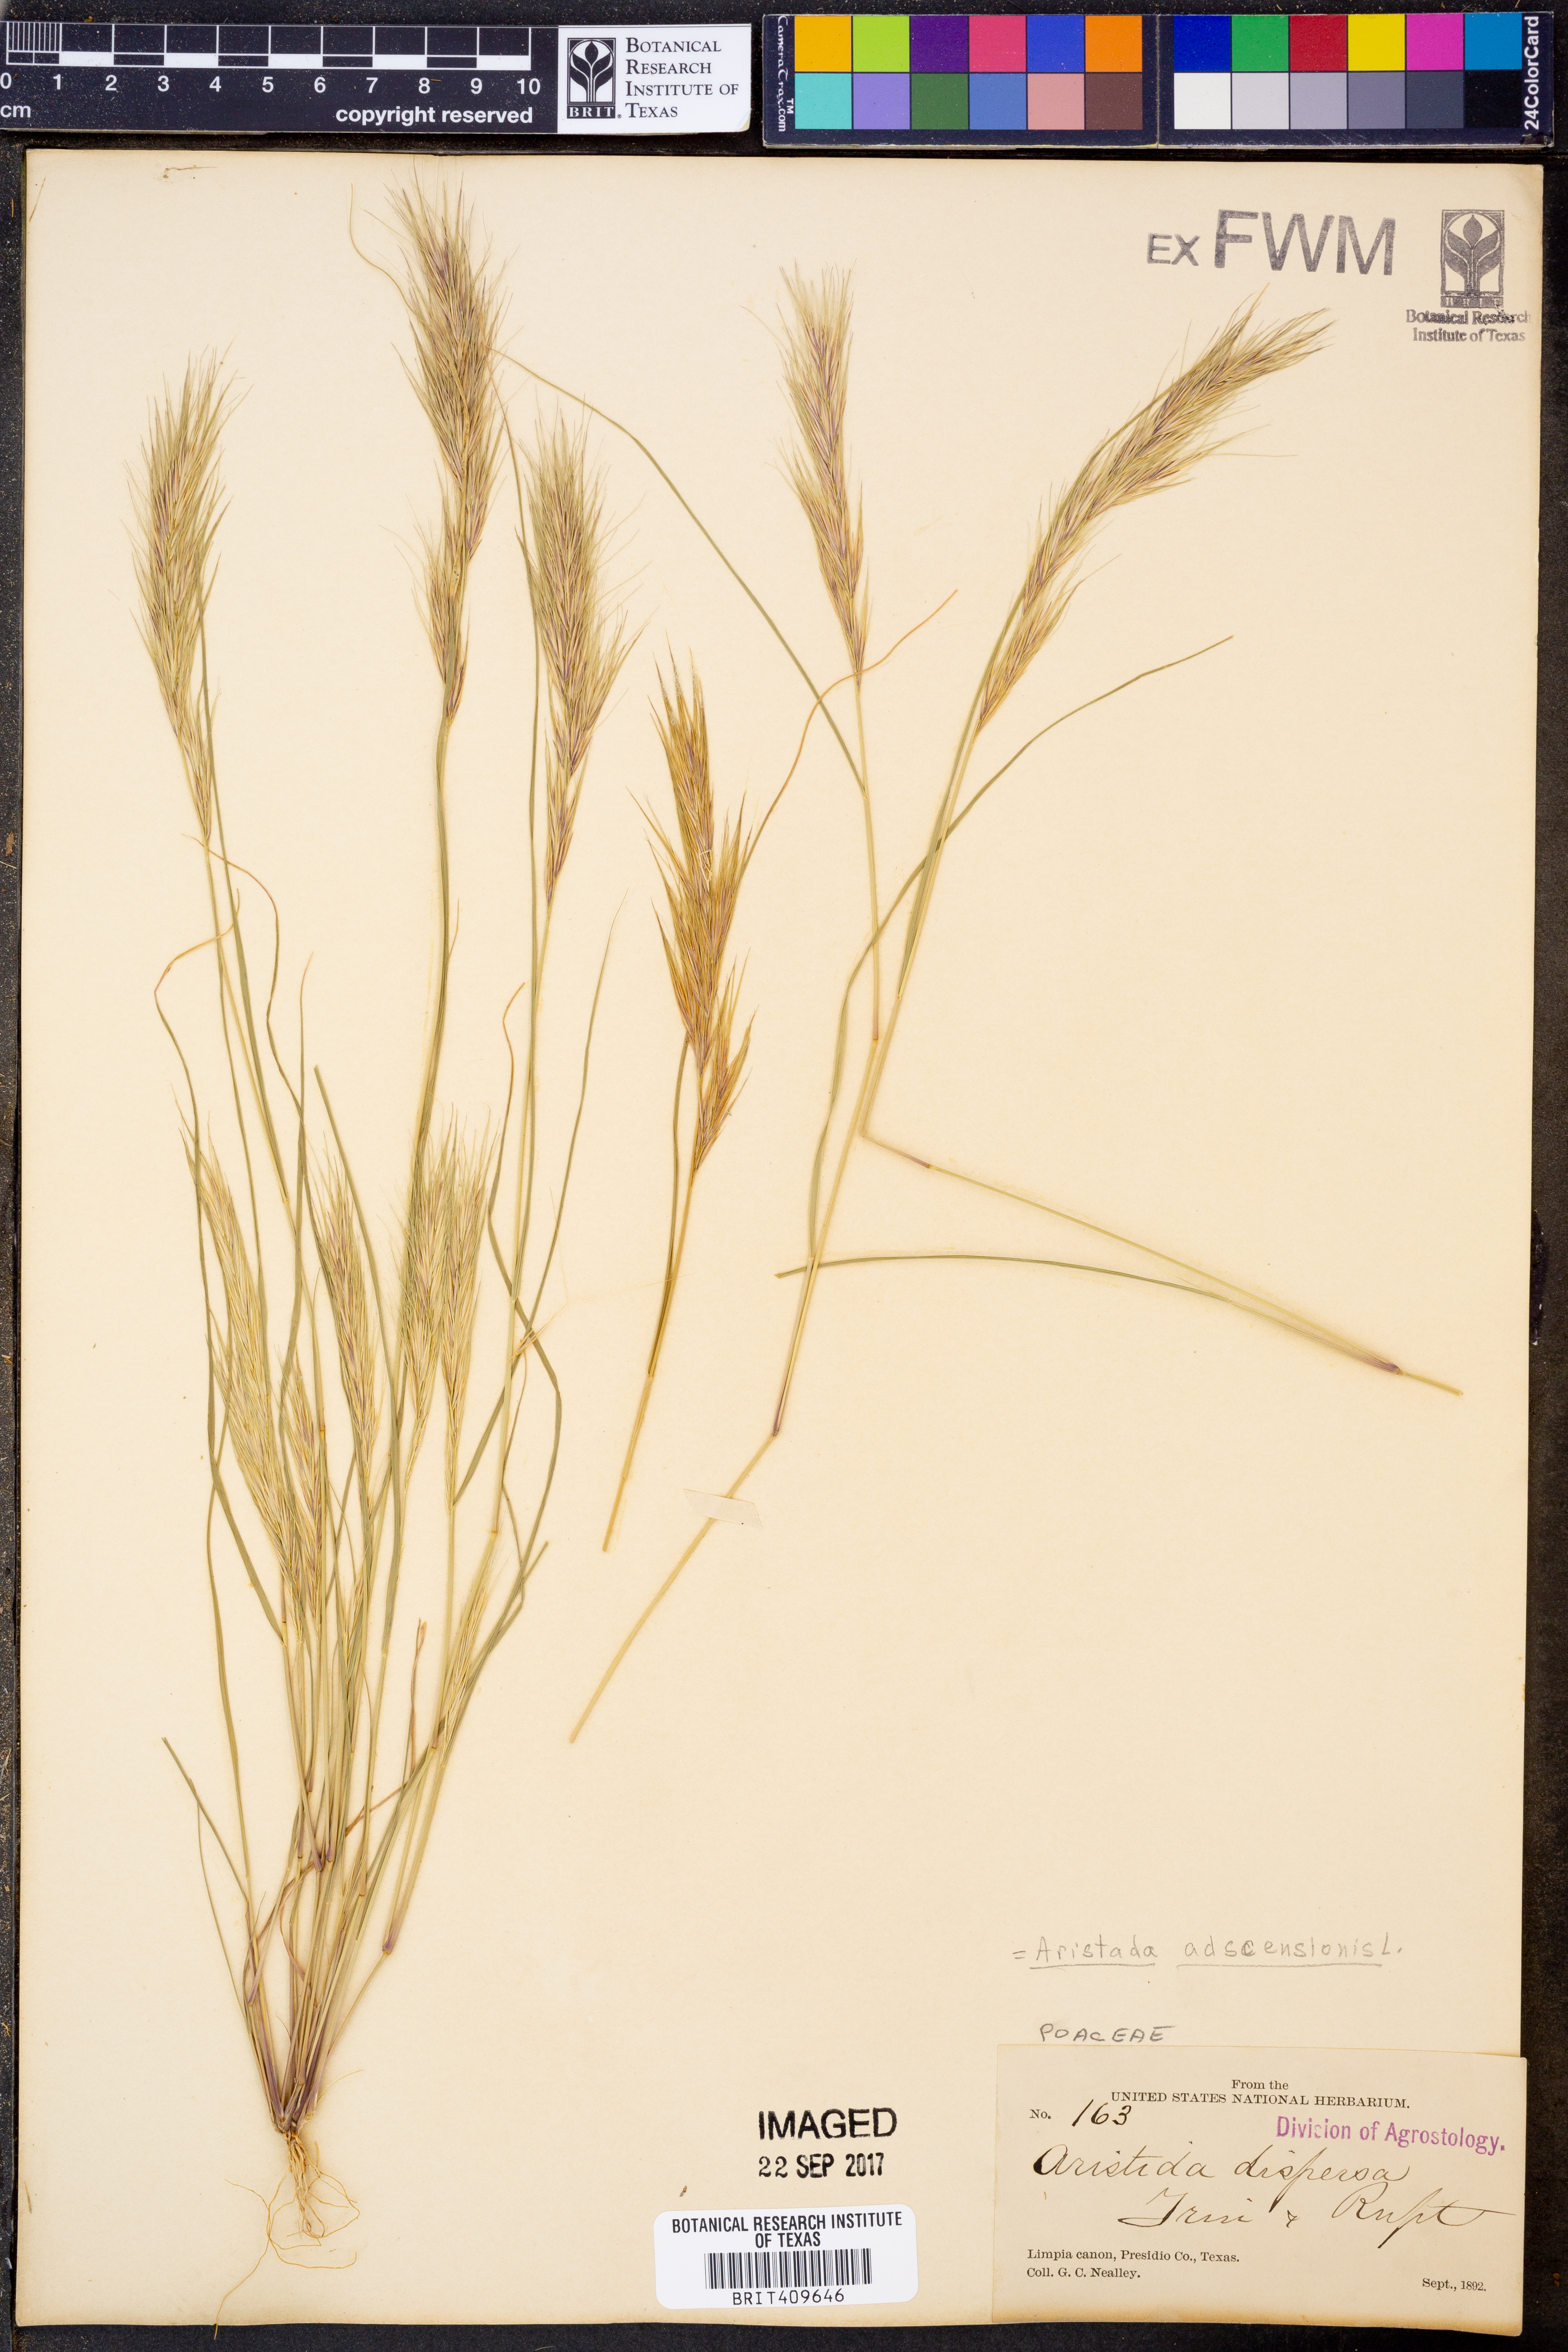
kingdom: Plantae
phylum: Tracheophyta
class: Liliopsida
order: Poales
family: Poaceae
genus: Aristida
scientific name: Aristida adscensionis
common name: Sixweeks threeawn
